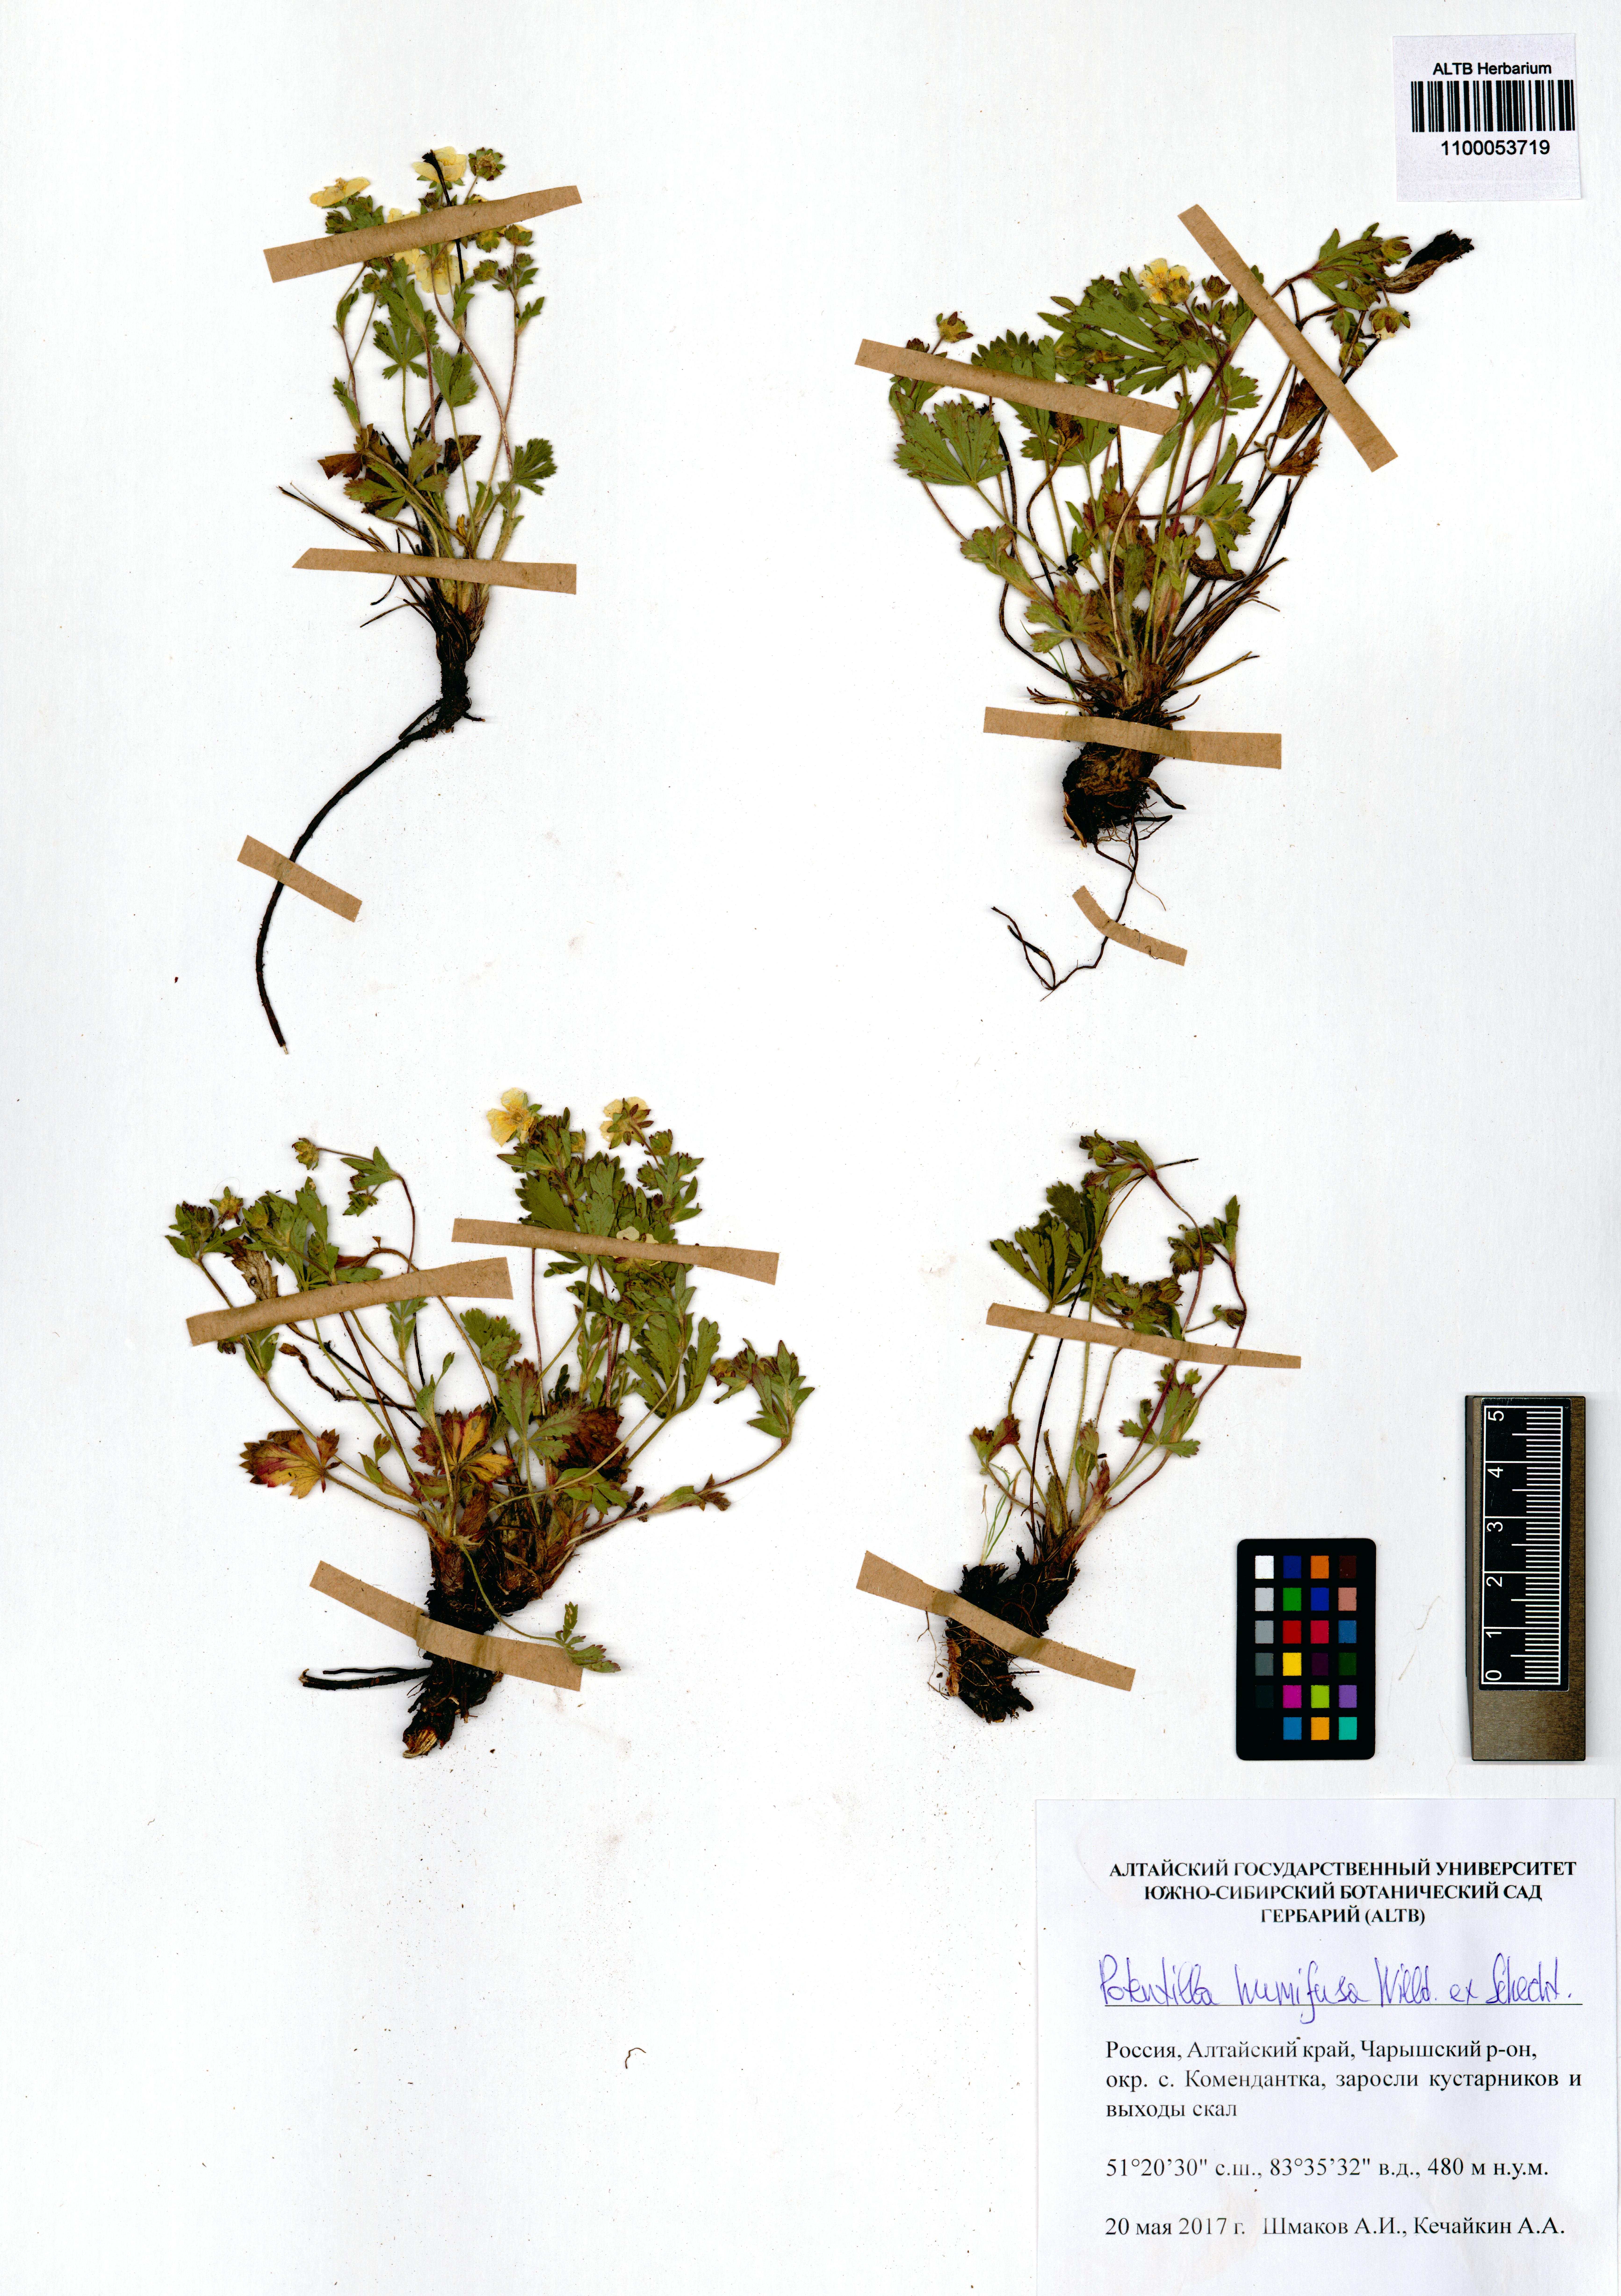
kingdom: Plantae
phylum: Tracheophyta
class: Magnoliopsida
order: Rosales
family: Rosaceae
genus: Potentilla
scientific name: Potentilla humifusa
